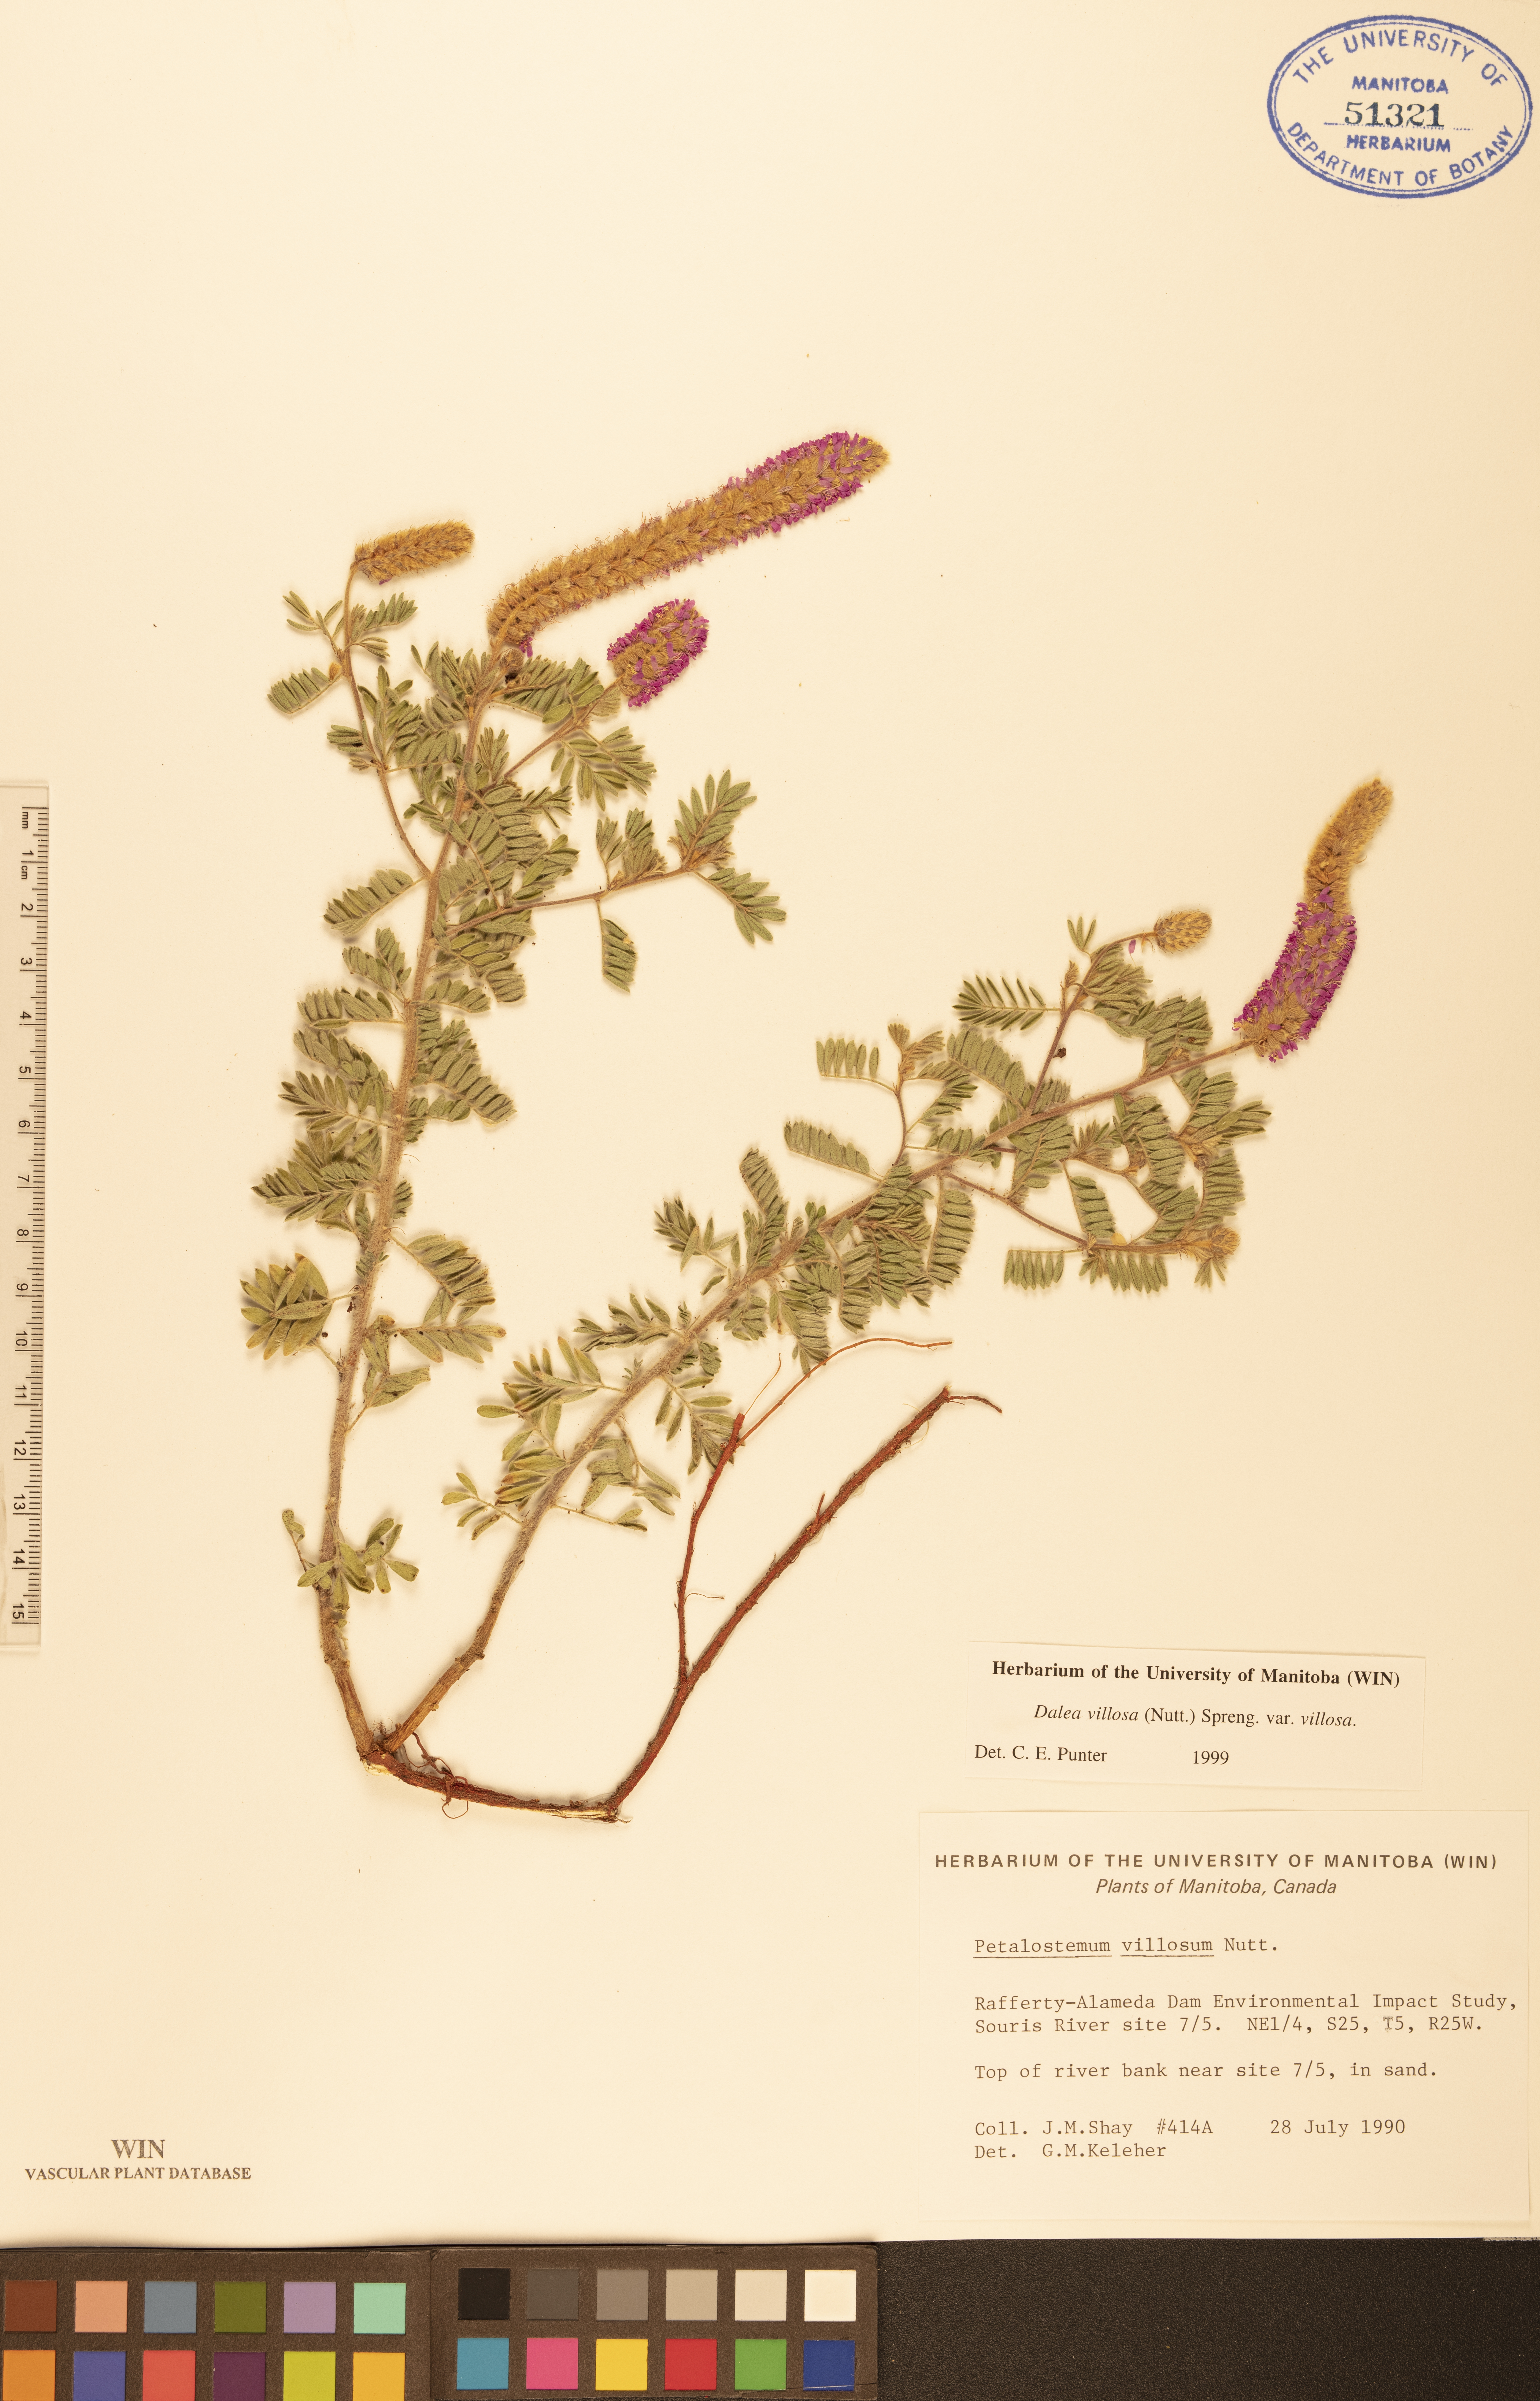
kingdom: Plantae
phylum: Tracheophyta
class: Magnoliopsida
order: Fabales
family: Fabaceae
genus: Dalea
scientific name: Dalea villosa
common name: Silky prairie-clover
